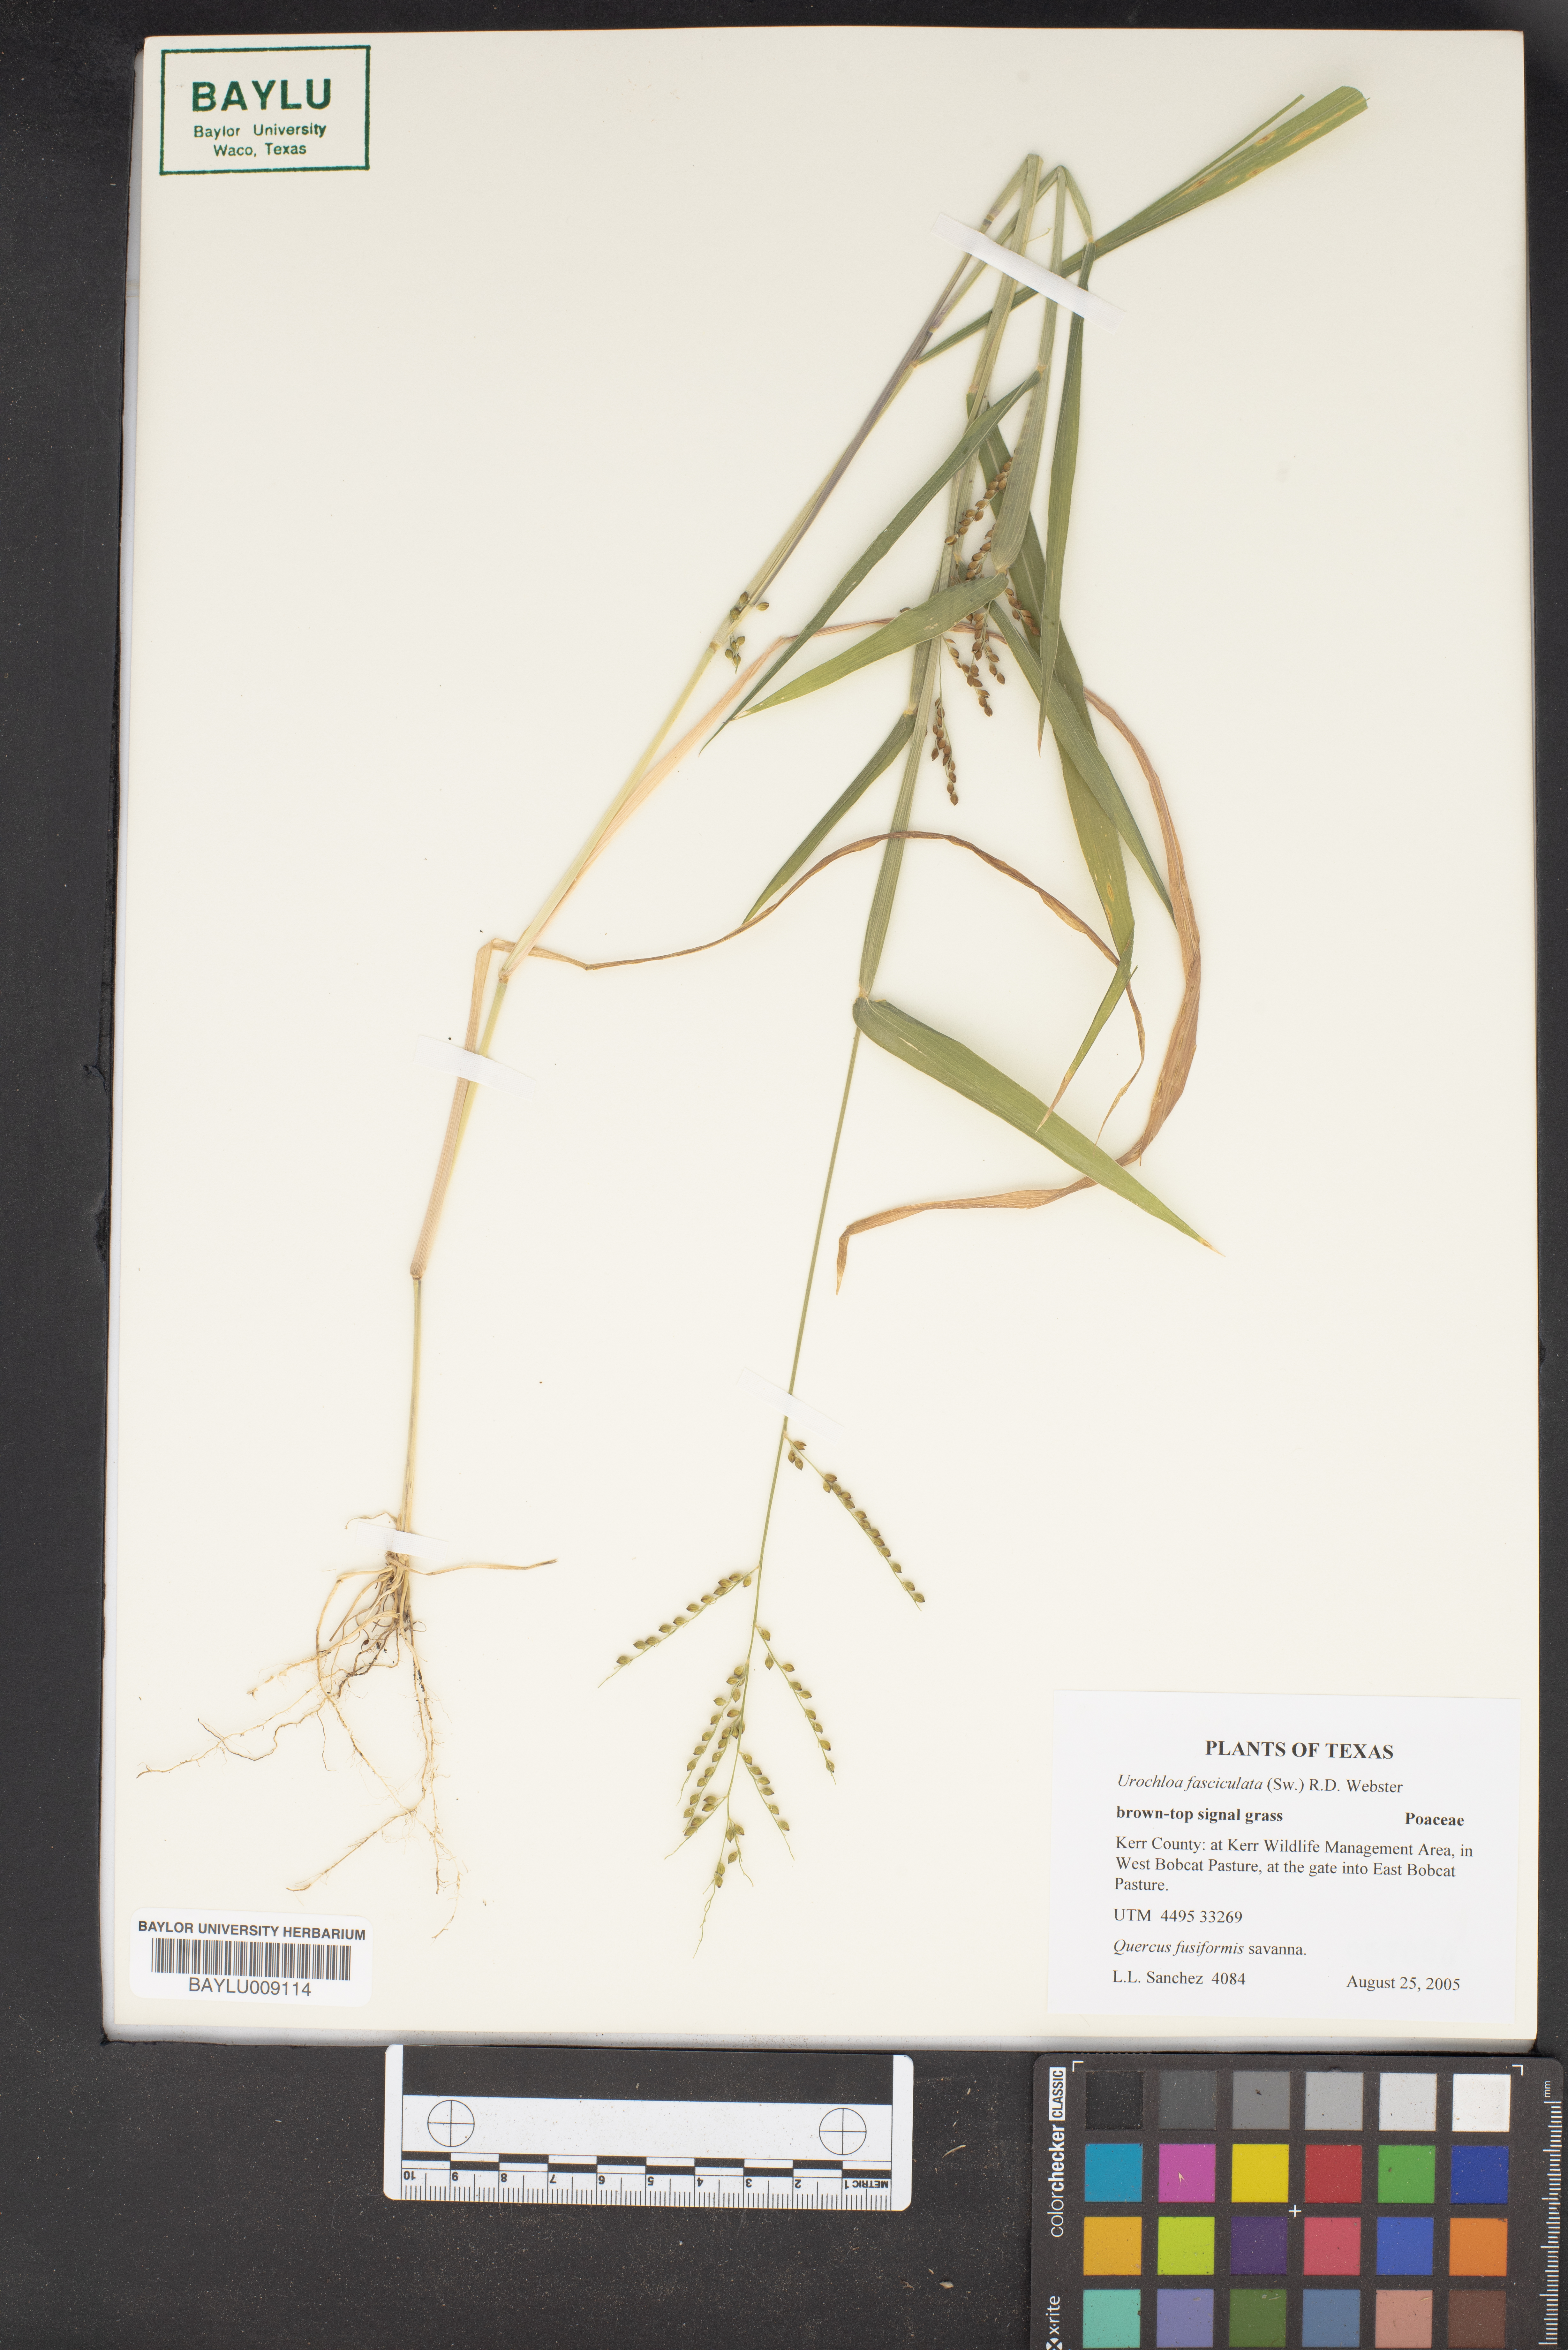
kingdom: Plantae
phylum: Tracheophyta
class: Liliopsida
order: Poales
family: Poaceae
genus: Urochloa
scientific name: Urochloa fusca
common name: Browntop signal grass
